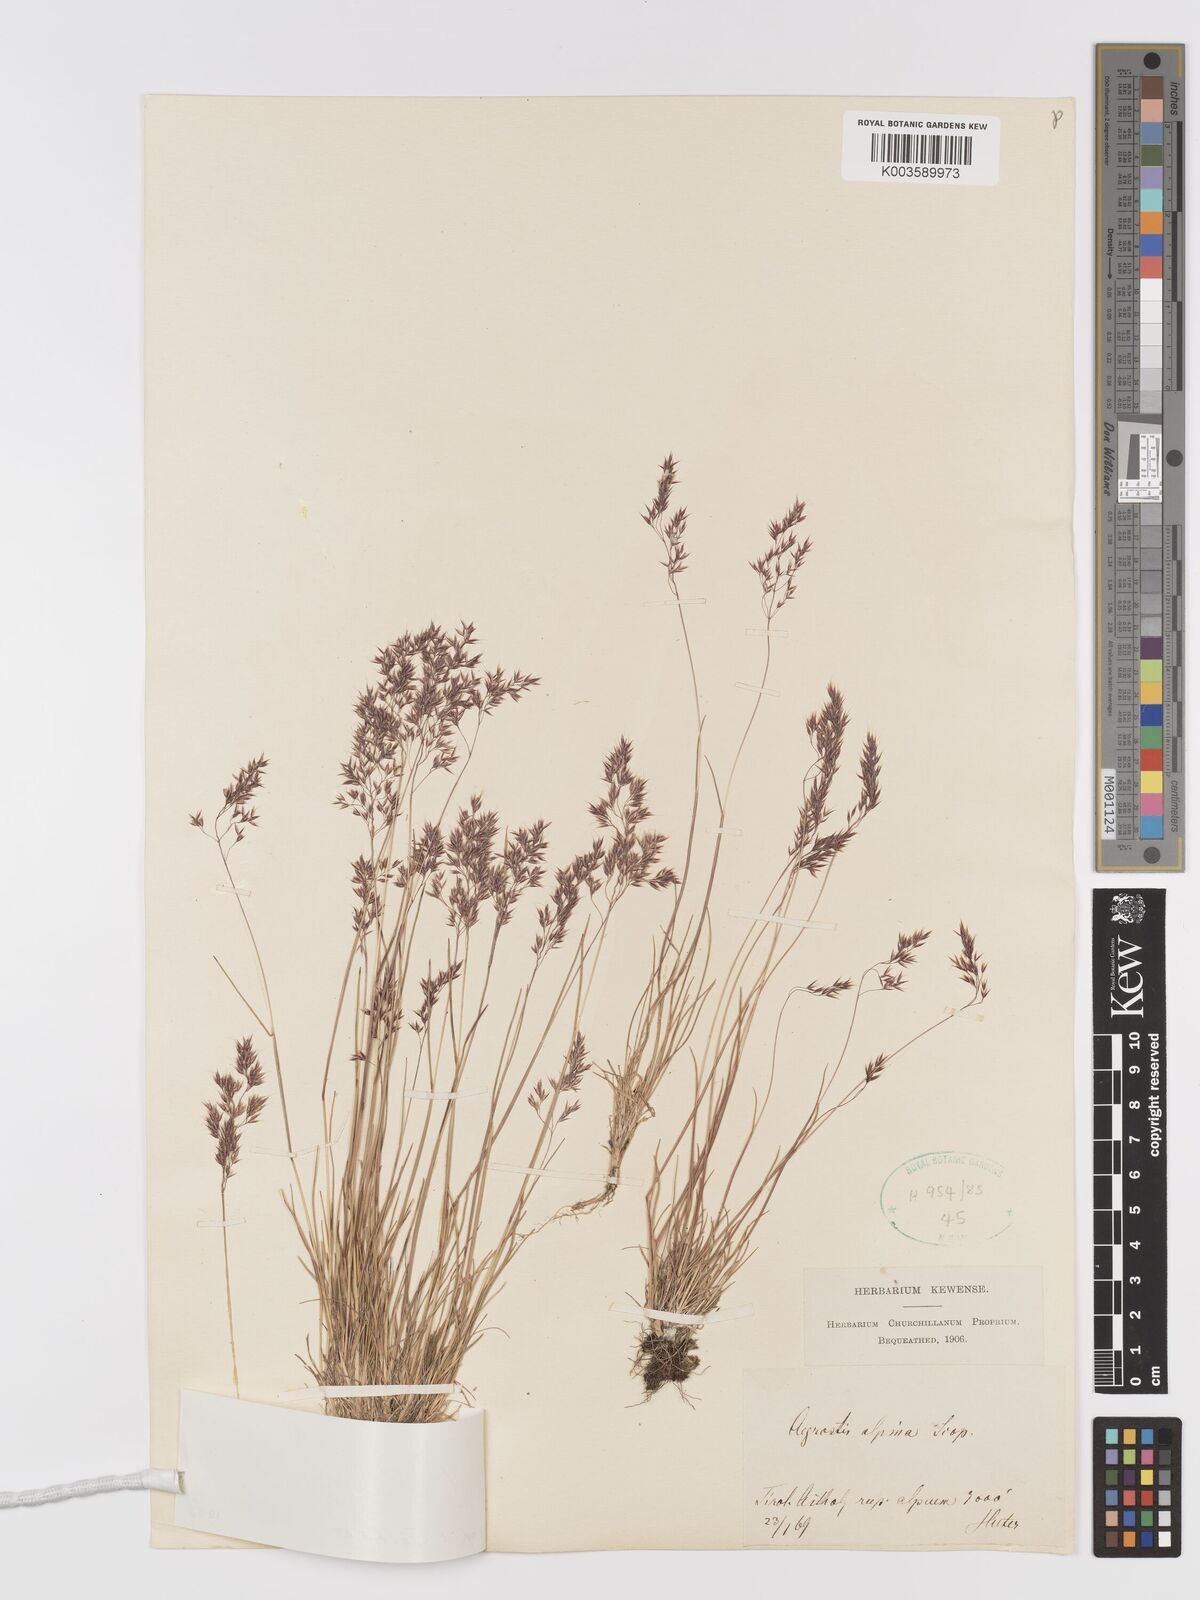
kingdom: Plantae
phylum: Tracheophyta
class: Liliopsida
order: Poales
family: Poaceae
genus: Alpagrostis
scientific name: Alpagrostis alpina
